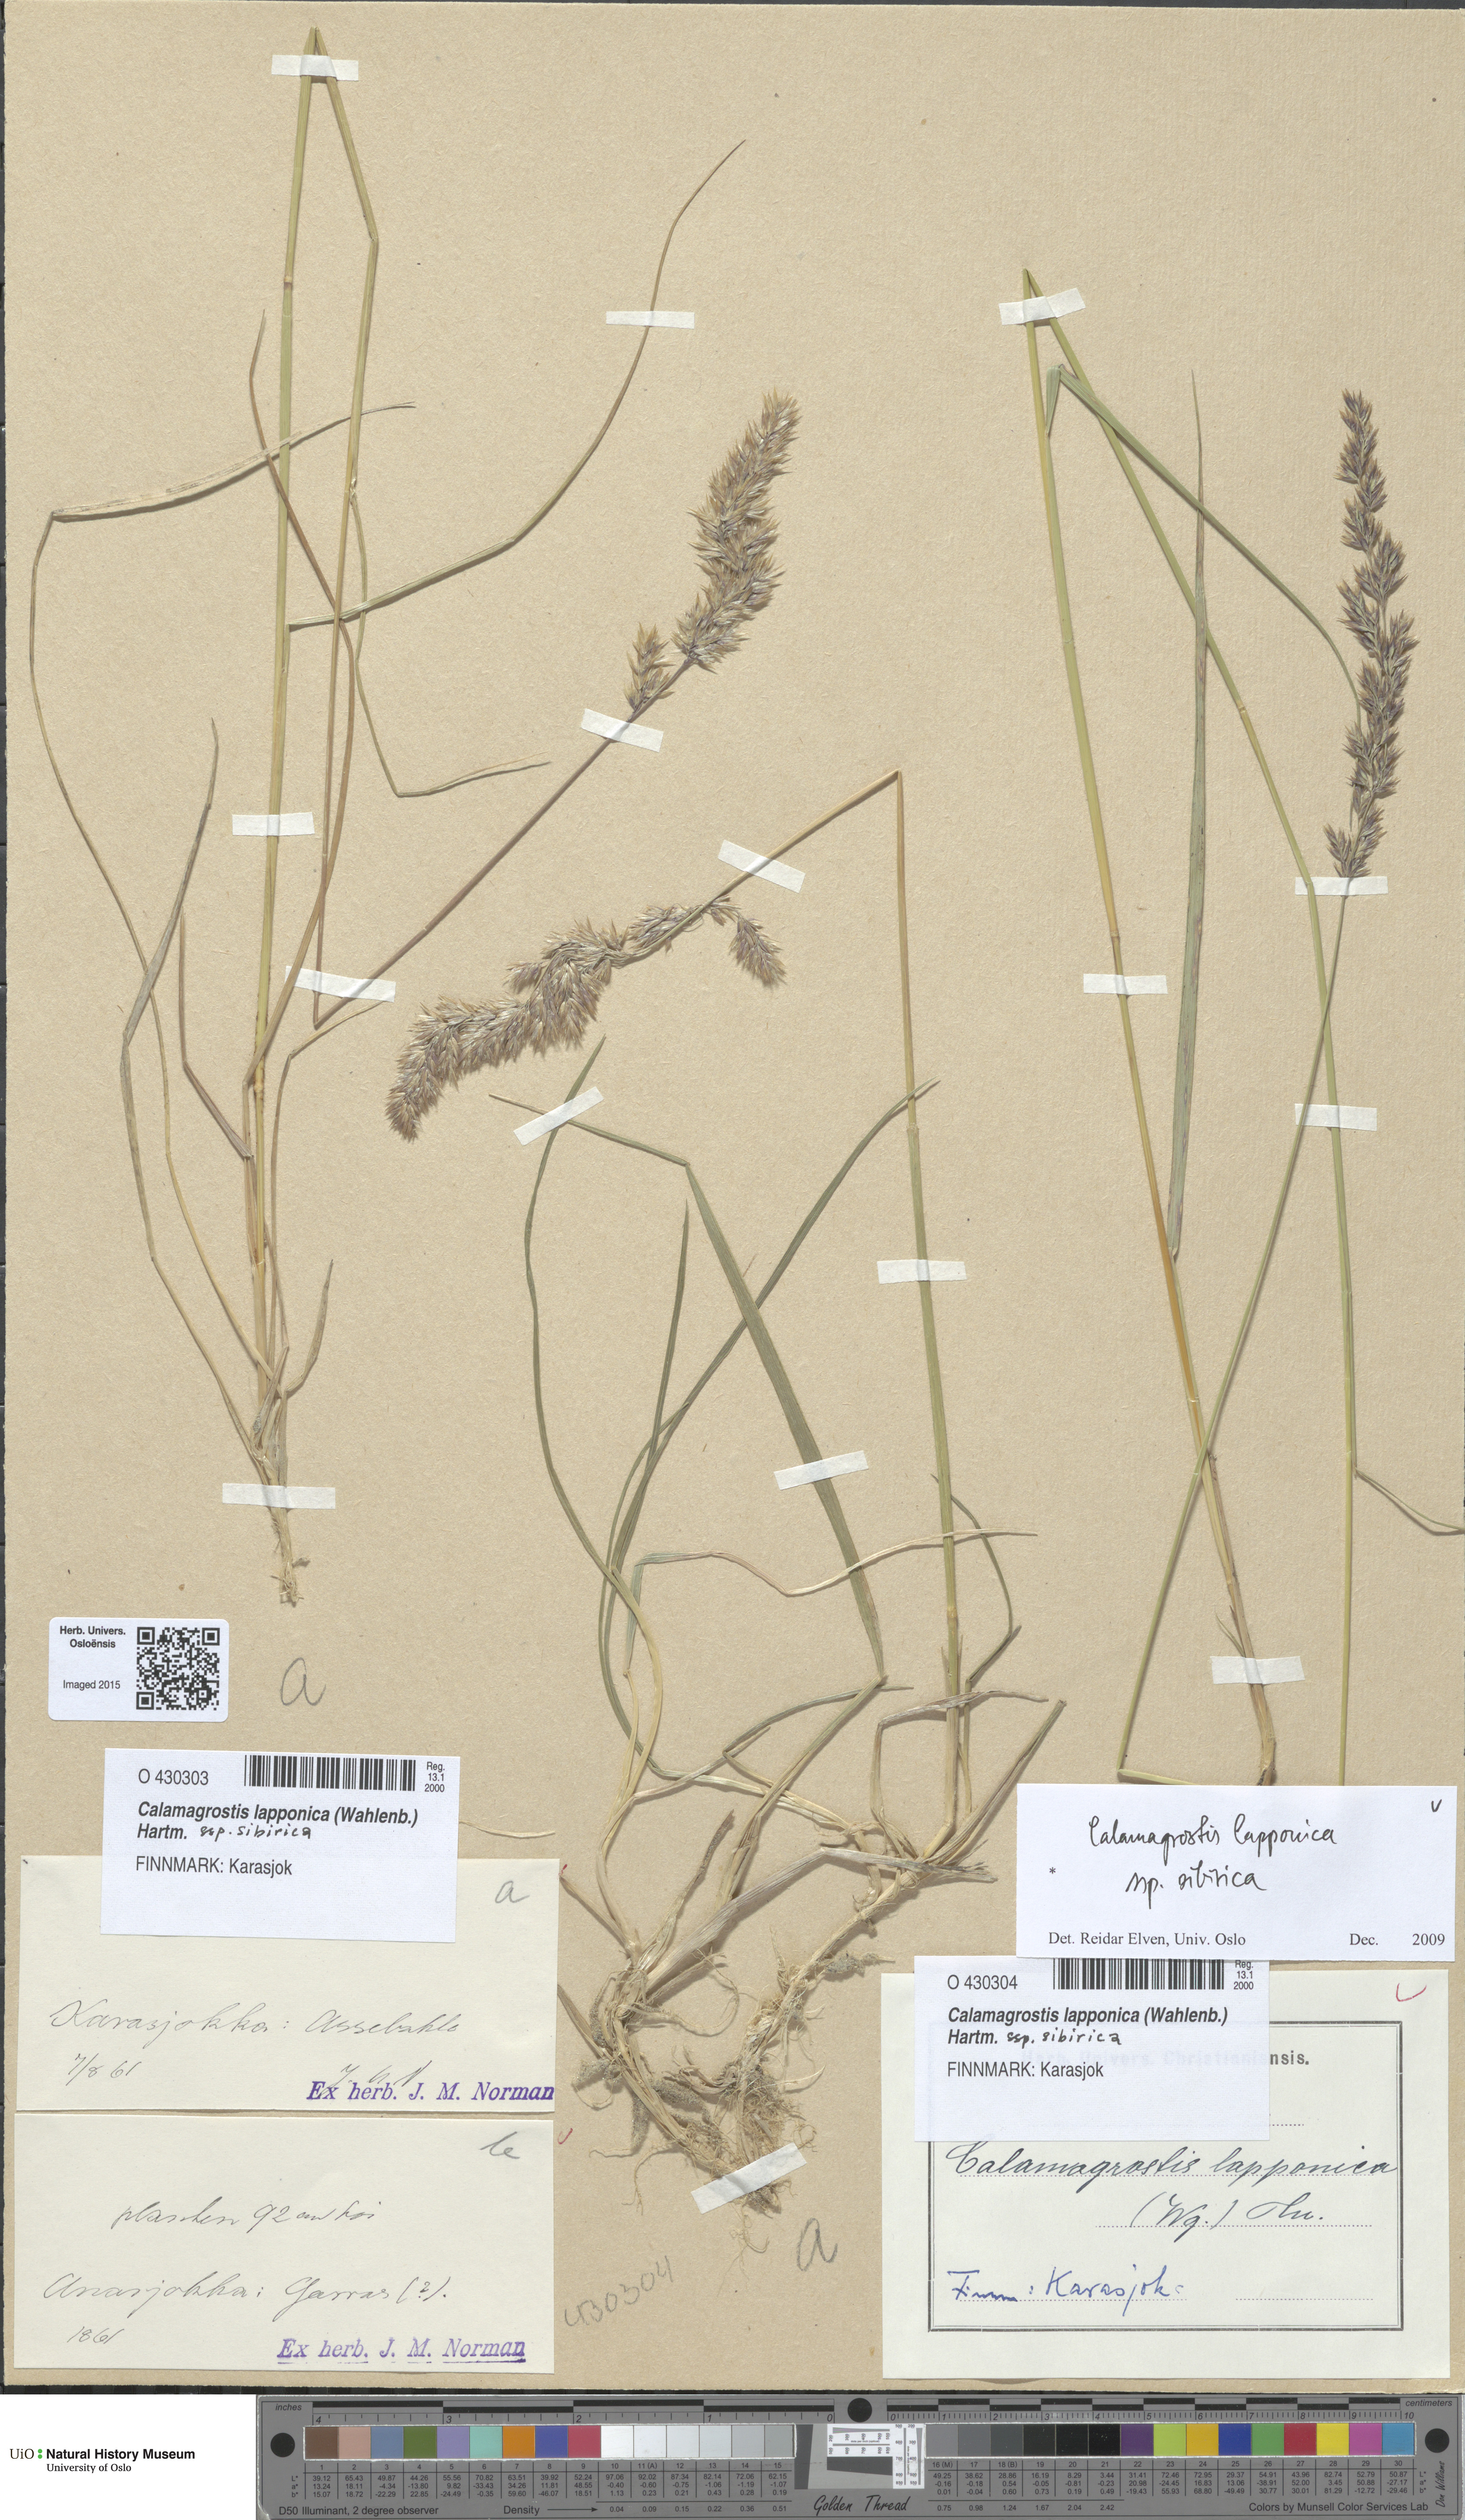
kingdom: Plantae
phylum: Tracheophyta
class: Liliopsida
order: Poales
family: Poaceae
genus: Calamagrostis
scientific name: Calamagrostis lapponica
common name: Lapland reedgrass
